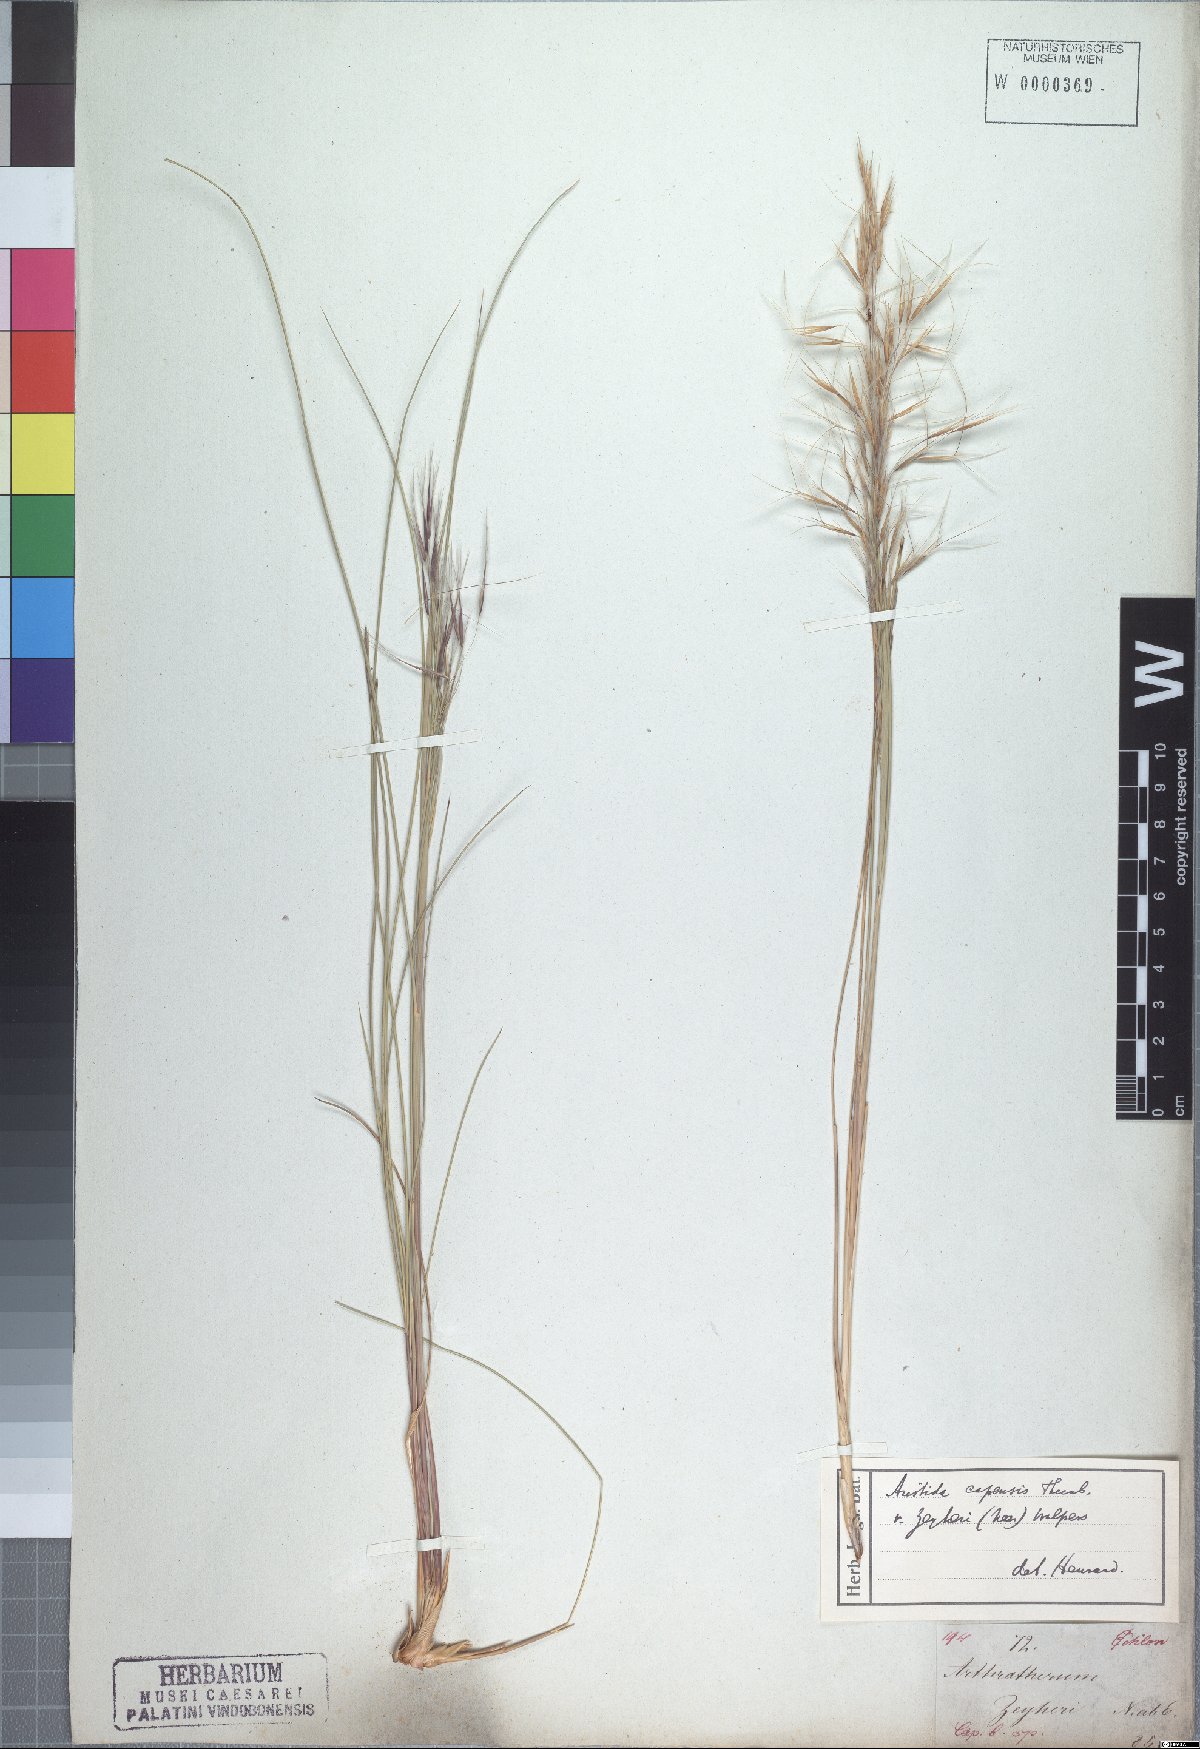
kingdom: Plantae
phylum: Tracheophyta
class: Liliopsida
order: Poales
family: Poaceae
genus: Stipagrostis
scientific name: Stipagrostis zeyheri
